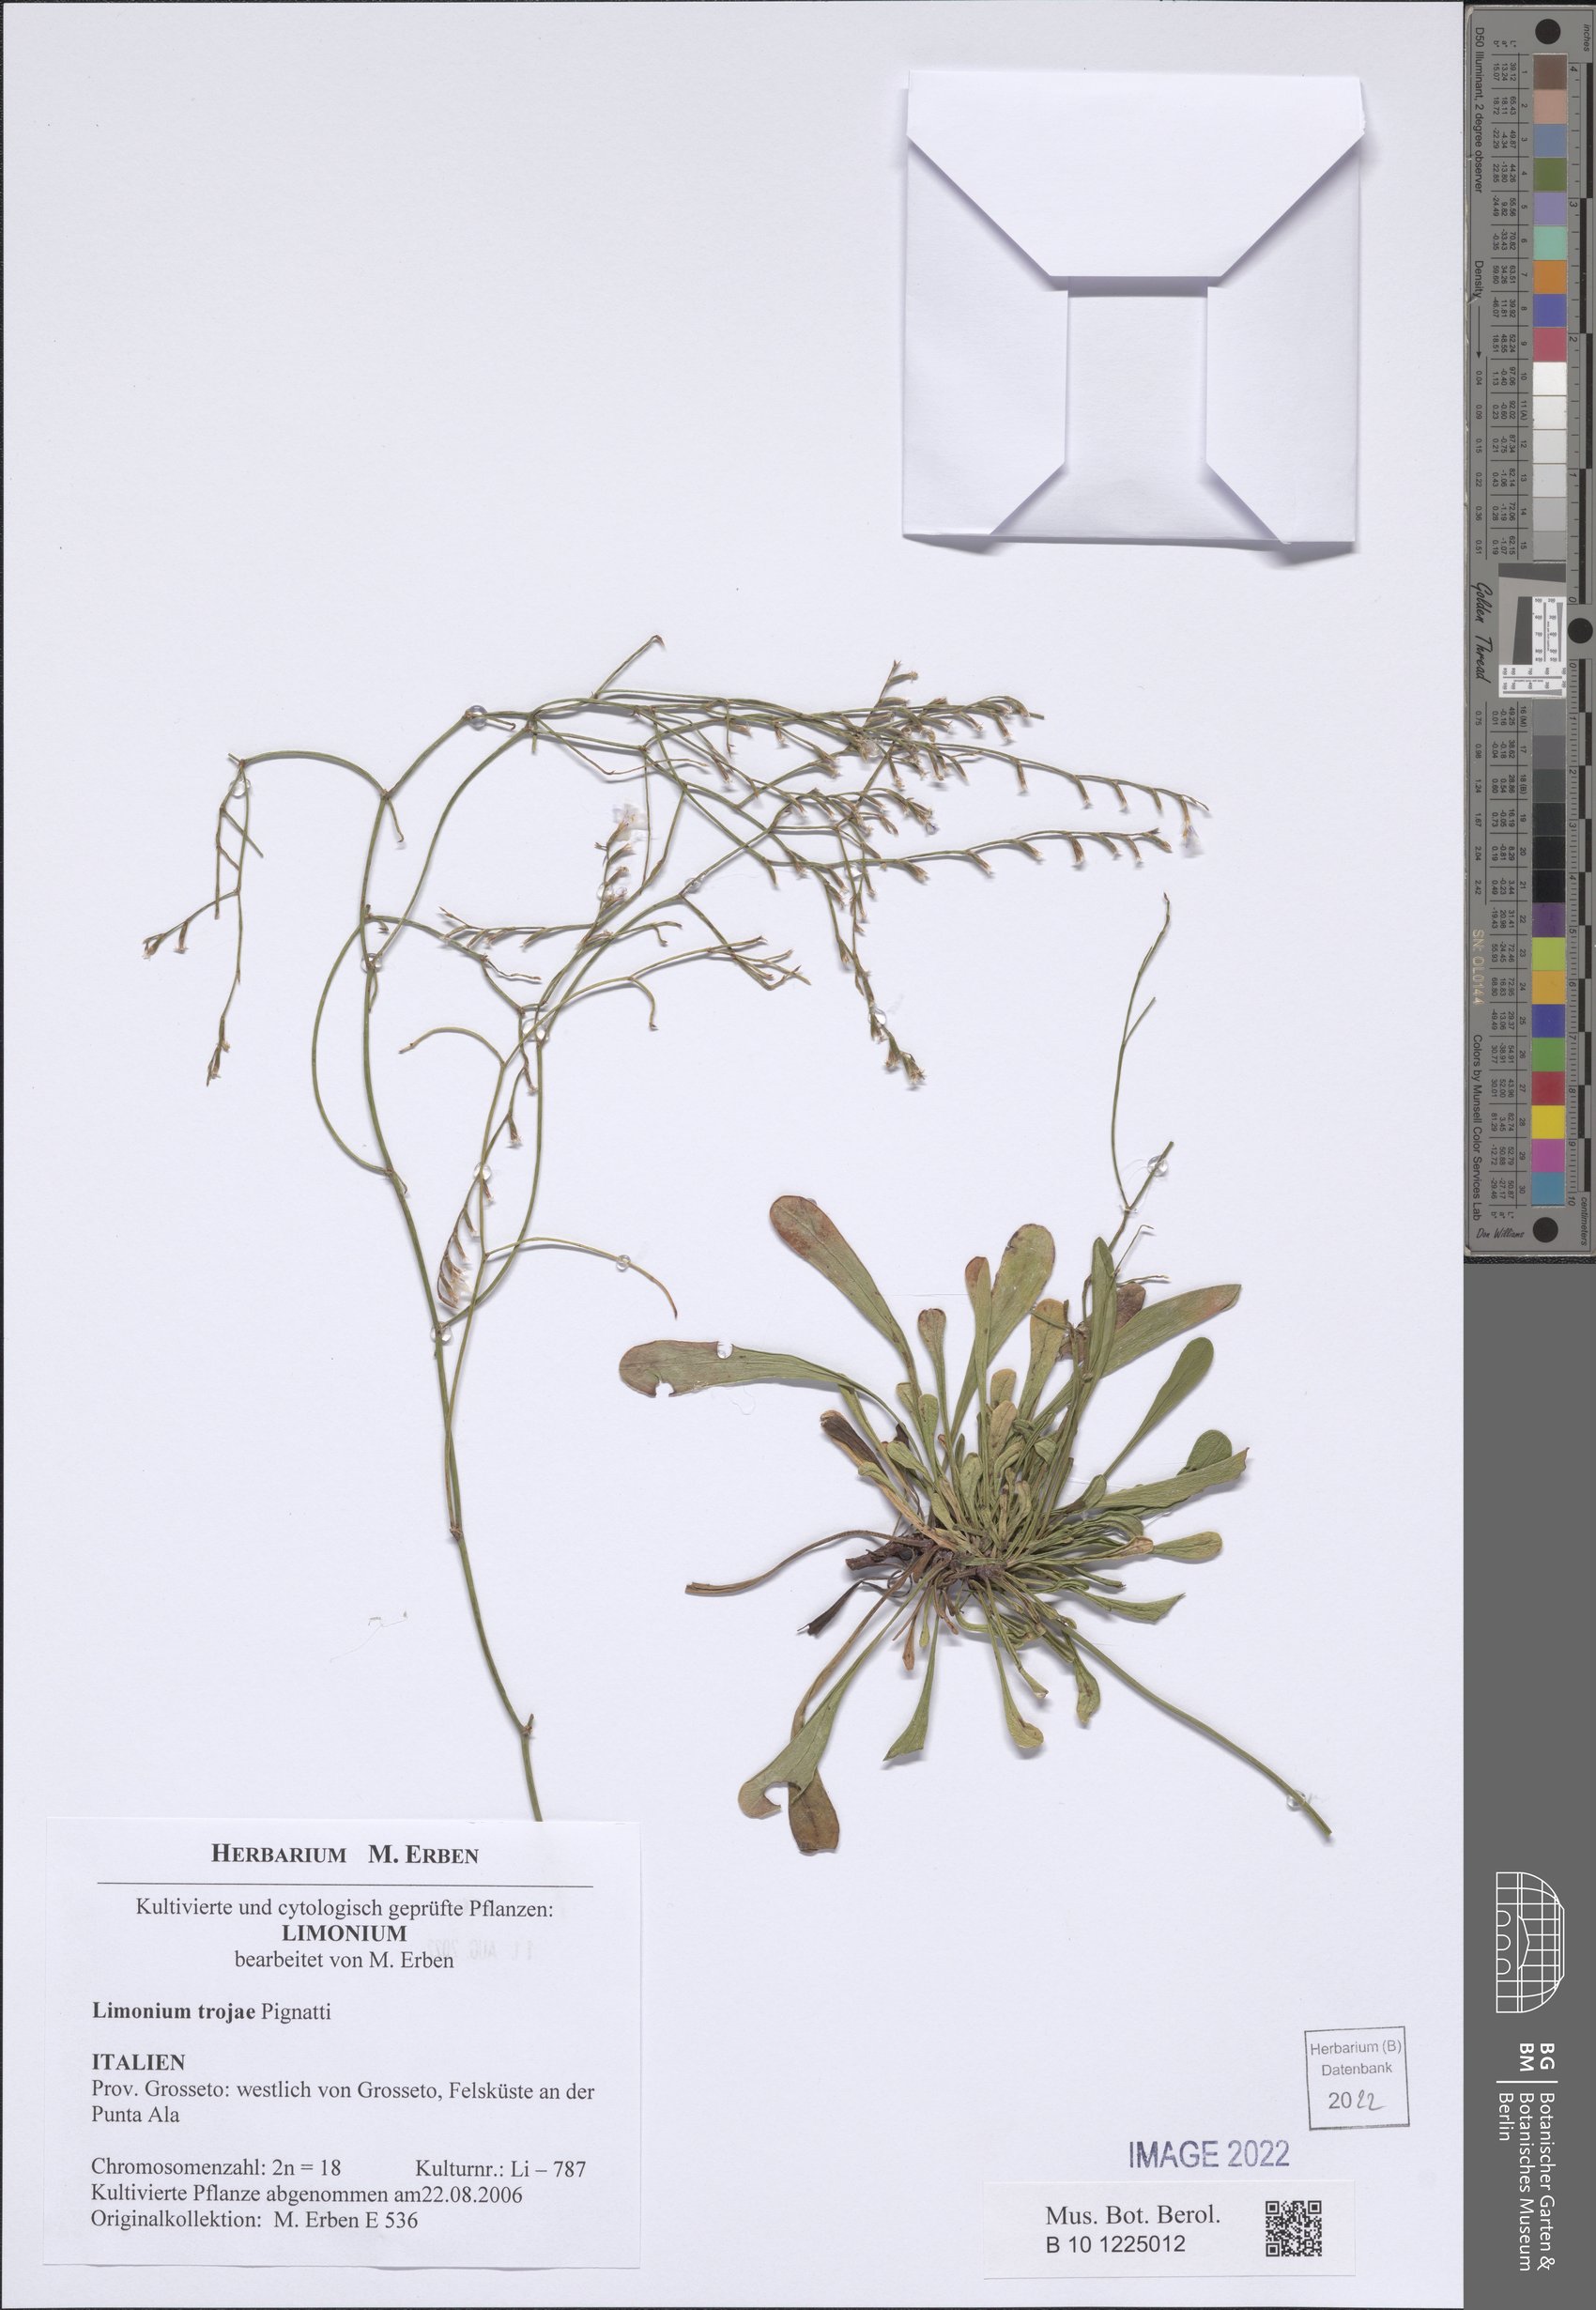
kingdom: Plantae
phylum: Tracheophyta
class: Magnoliopsida
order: Caryophyllales
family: Plumbaginaceae
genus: Limonium
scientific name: Limonium multiforme
